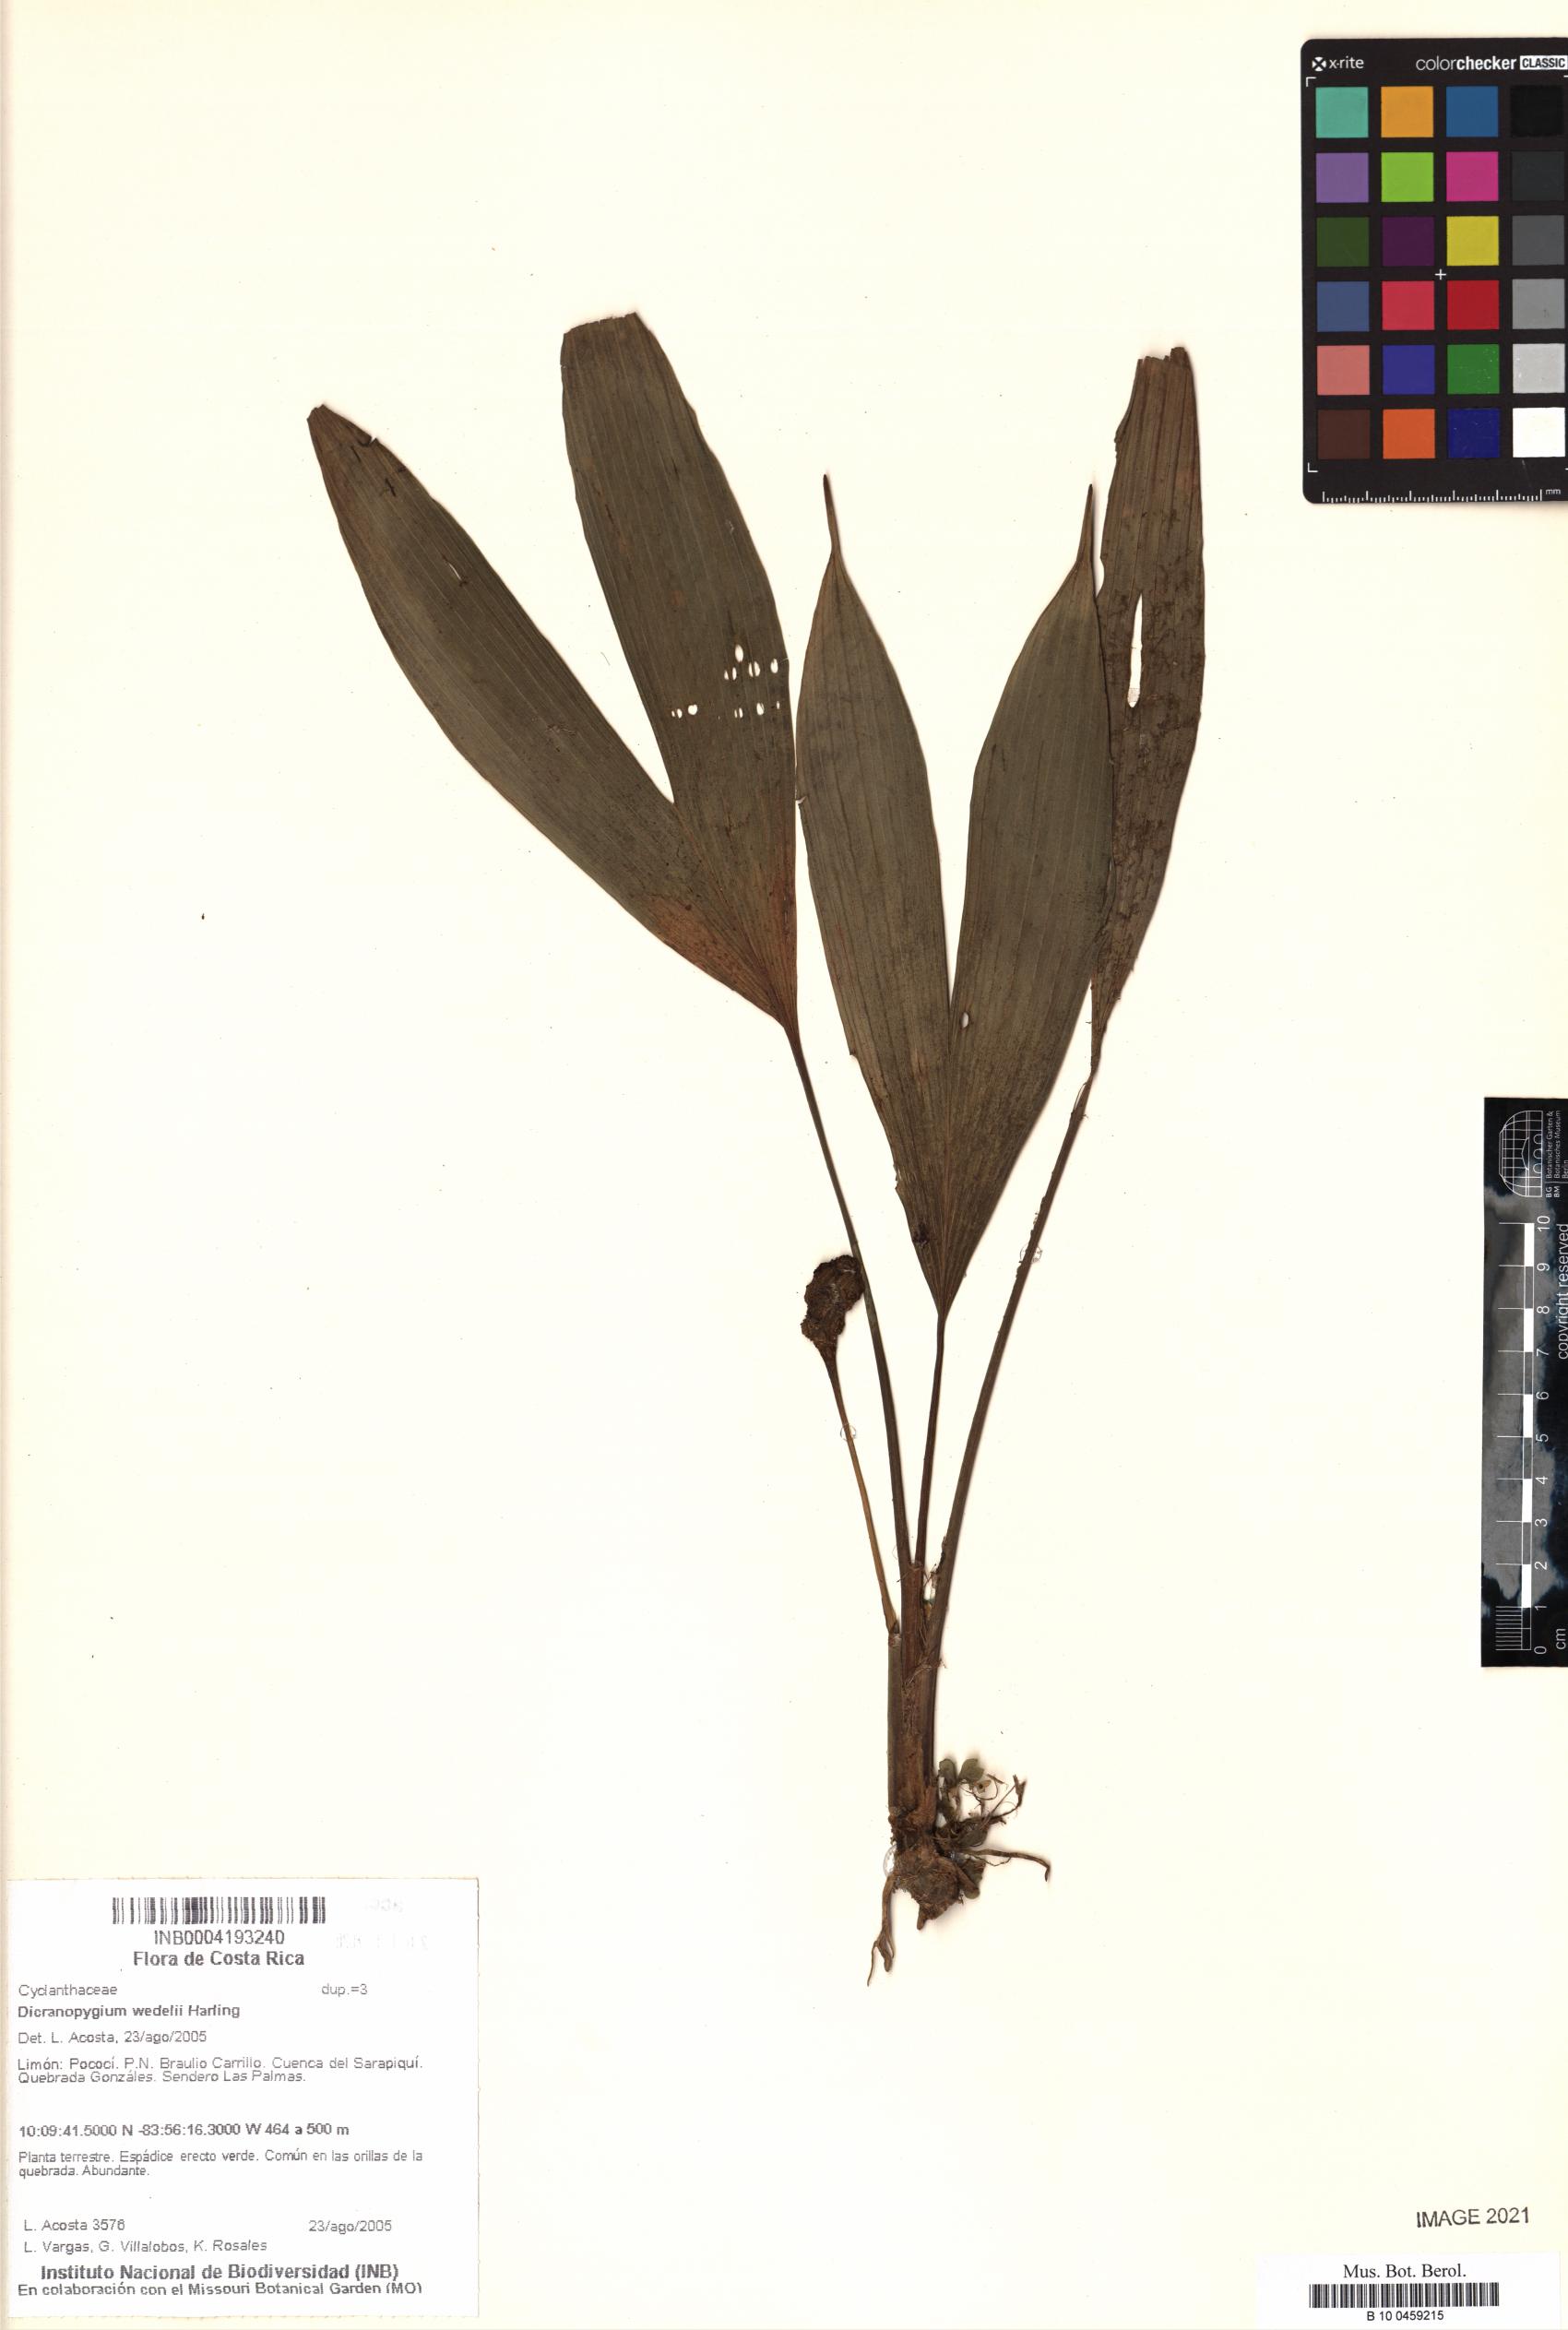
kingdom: Plantae
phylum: Tracheophyta
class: Liliopsida
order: Pandanales
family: Cyclanthaceae
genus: Dicranopygium
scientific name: Dicranopygium wedelii
